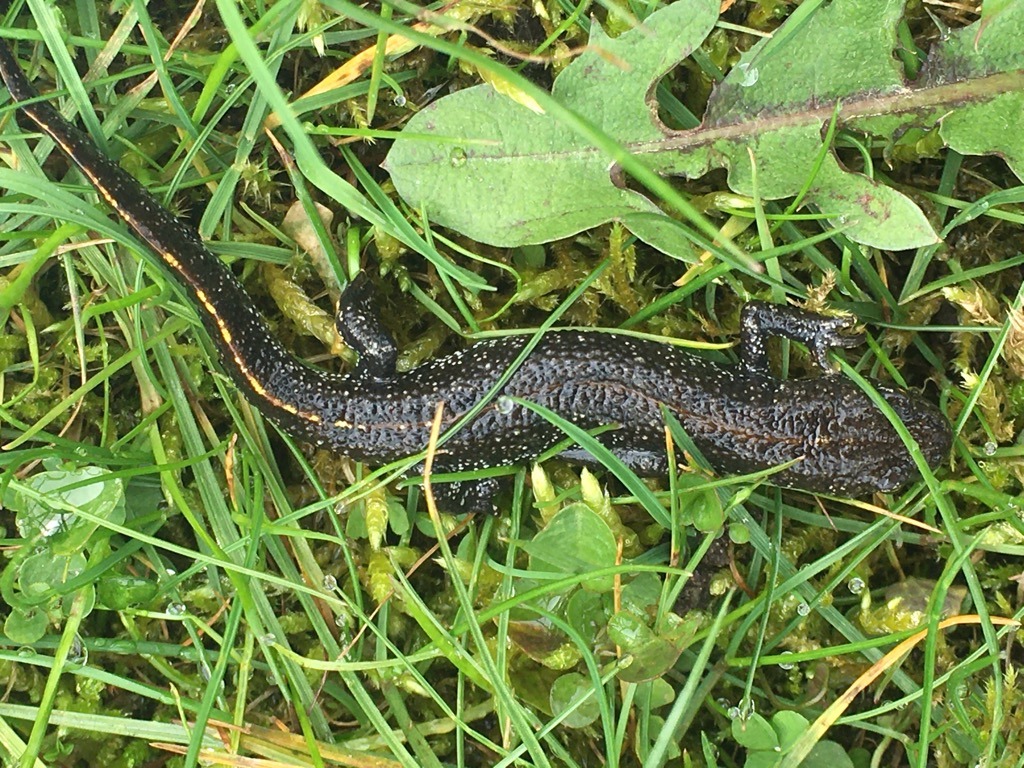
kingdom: Animalia
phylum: Chordata
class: Amphibia
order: Caudata
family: Salamandridae
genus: Triturus
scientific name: Triturus cristatus
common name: Stor vandsalamander
